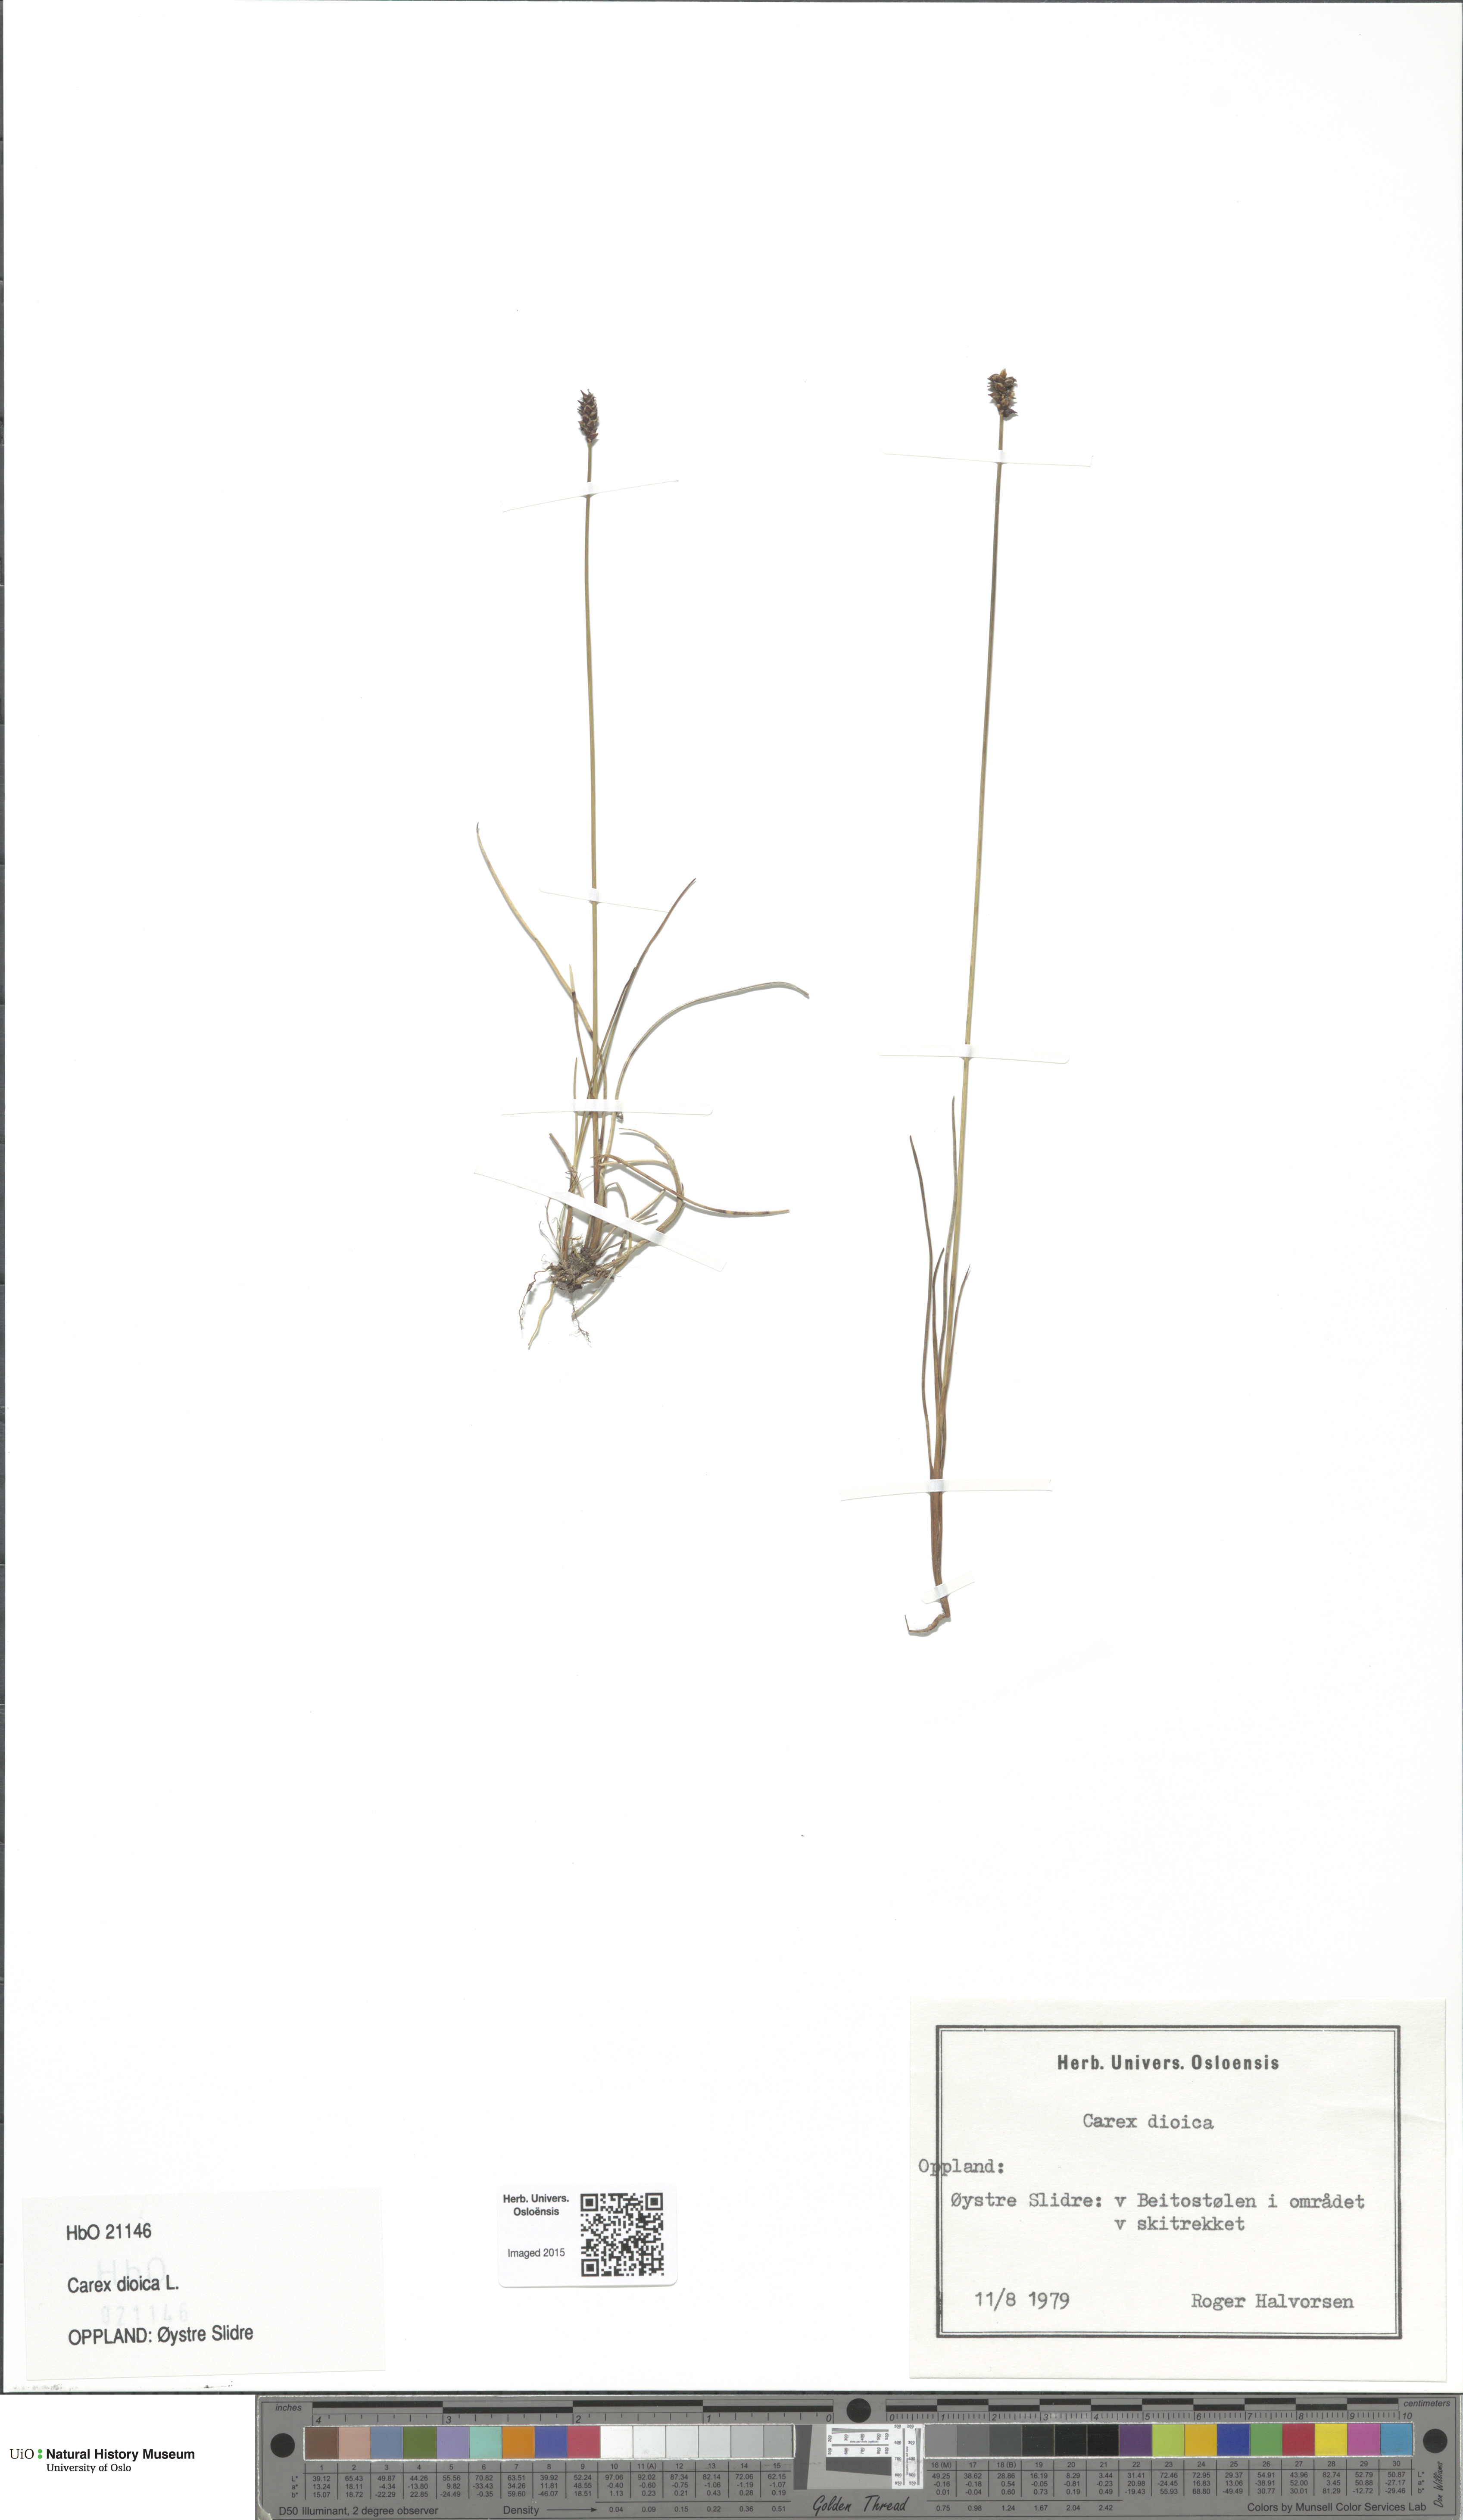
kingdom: Plantae
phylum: Tracheophyta
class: Liliopsida
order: Poales
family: Cyperaceae
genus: Carex
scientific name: Carex dioica
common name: Dioecious sedge
